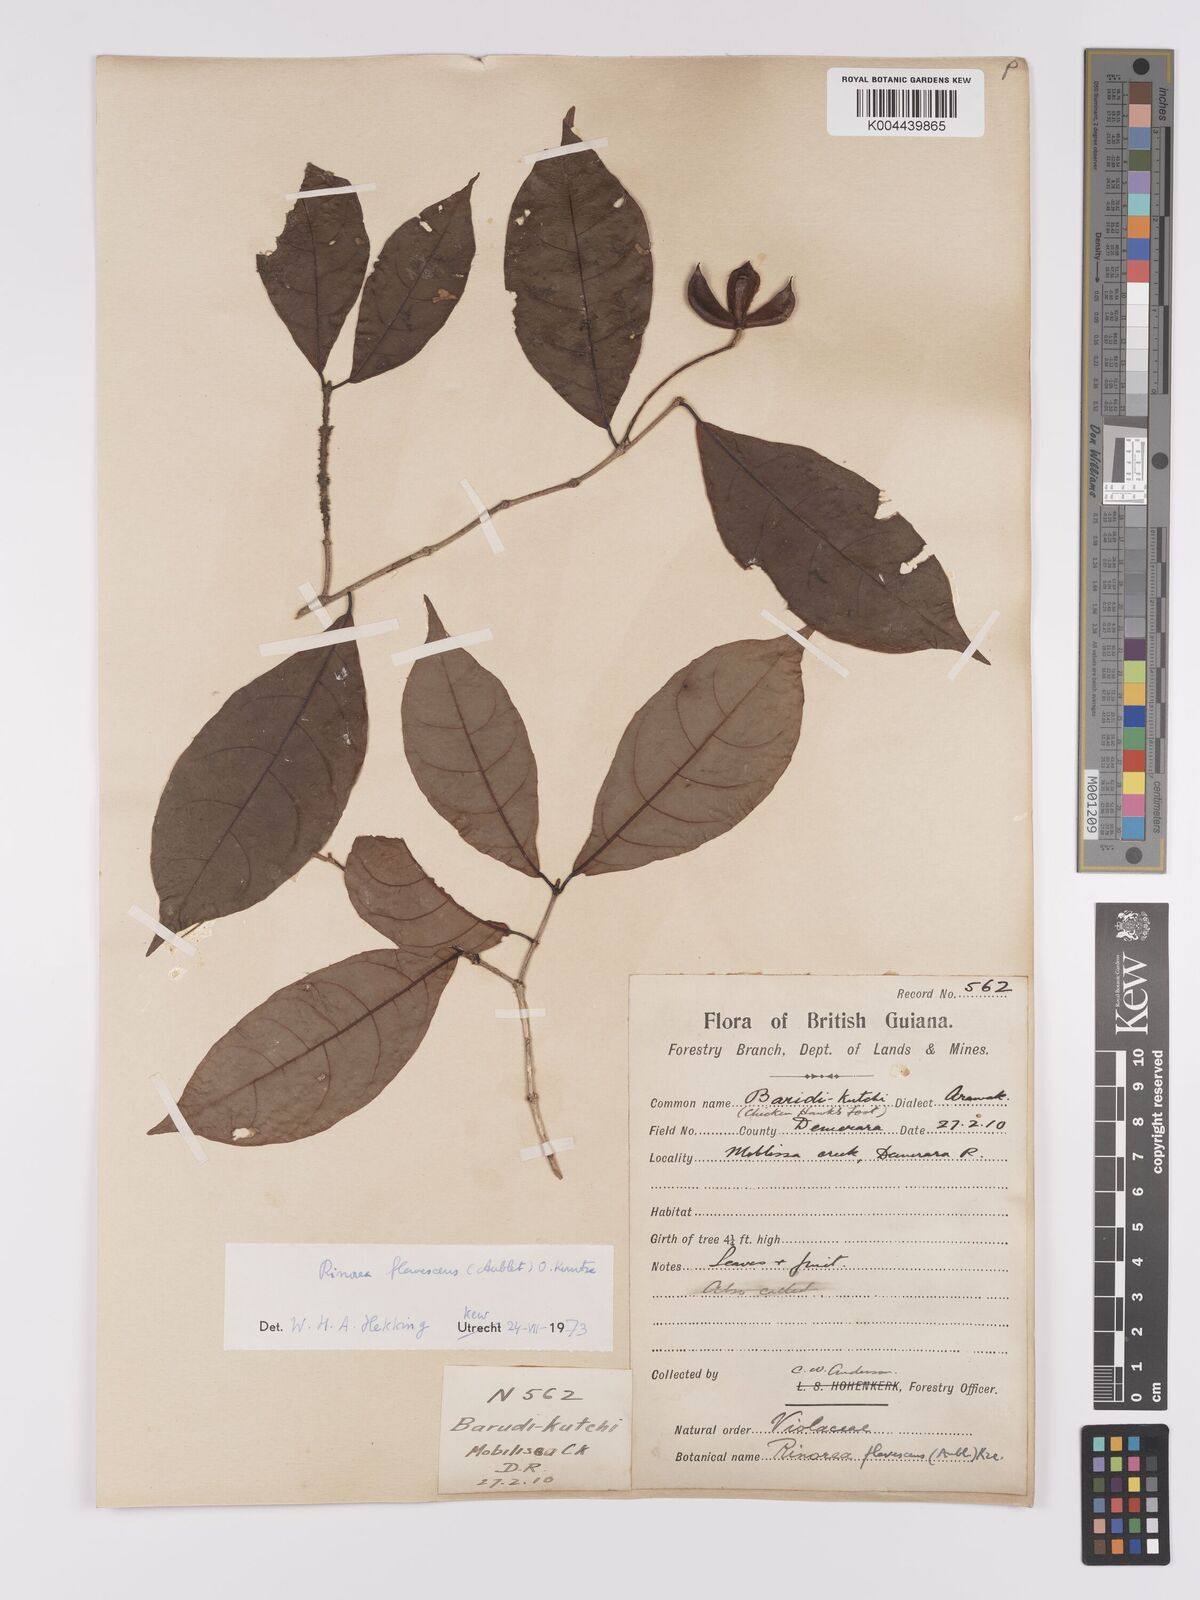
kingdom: Plantae
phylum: Tracheophyta
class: Magnoliopsida
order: Malpighiales
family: Violaceae
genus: Rinorea
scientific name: Rinorea flavescens
